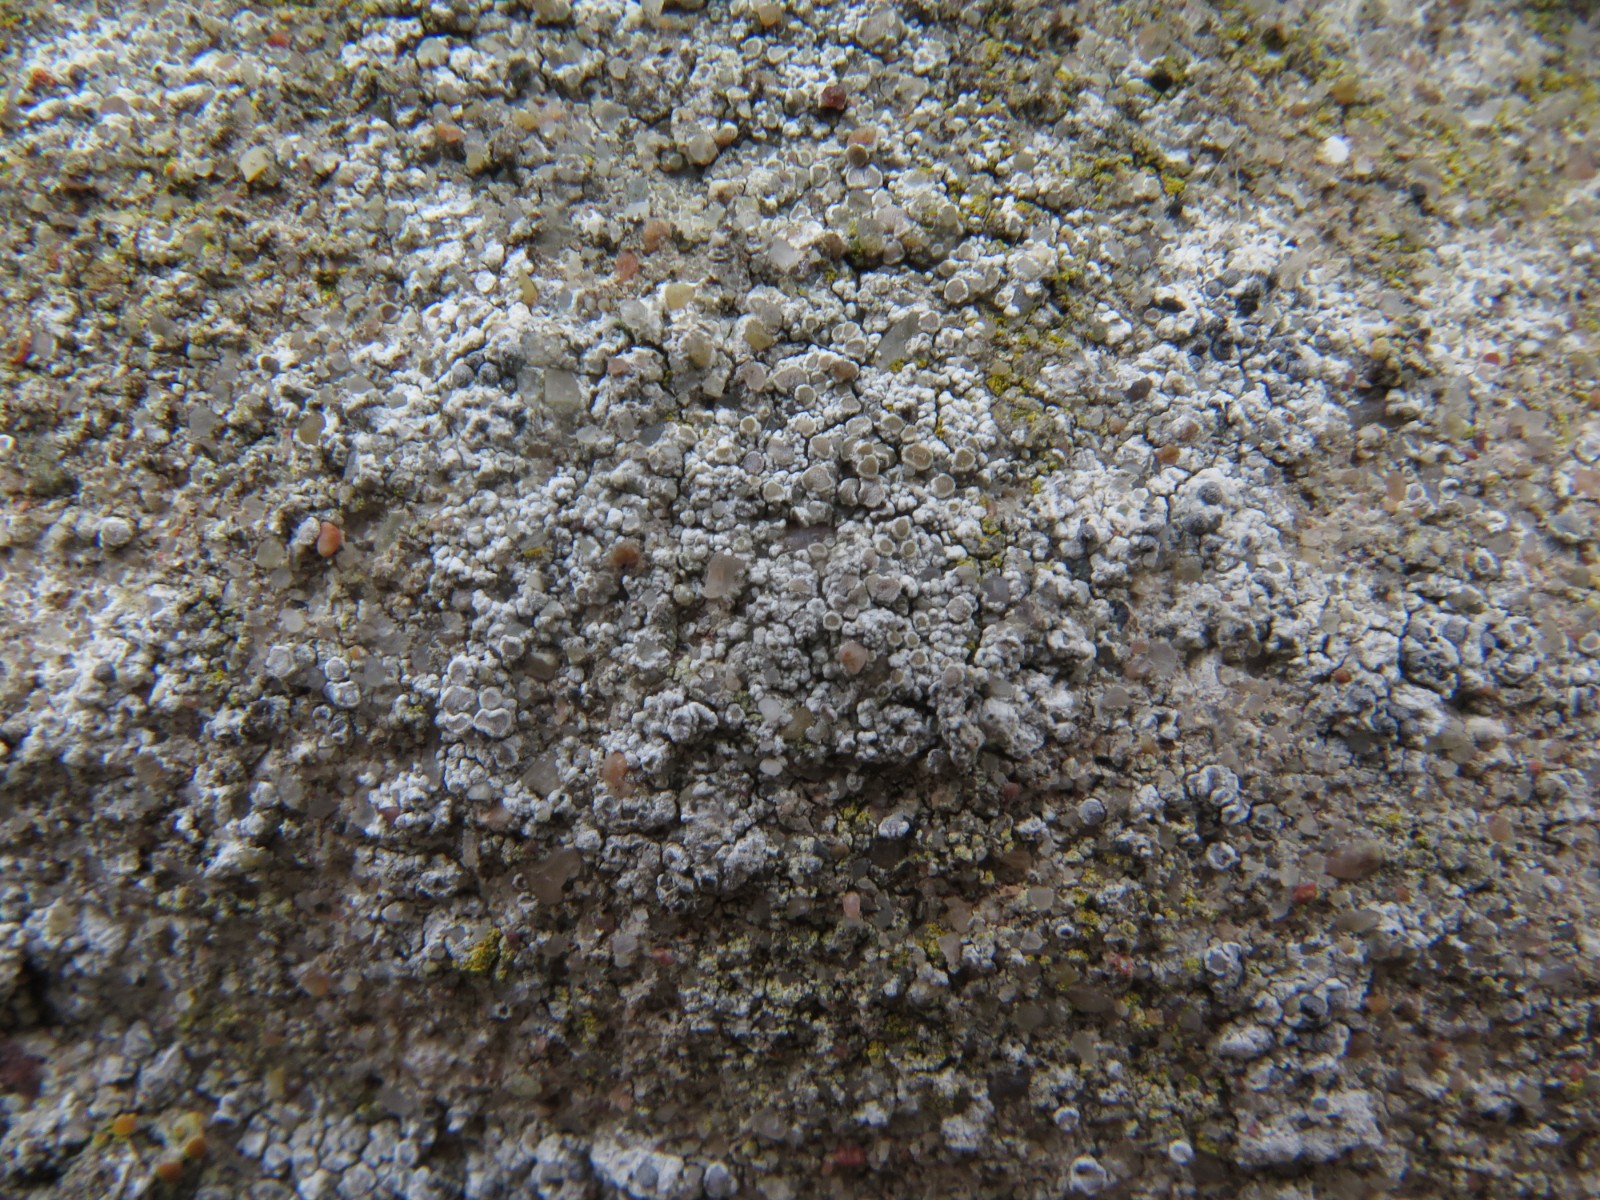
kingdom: Fungi
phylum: Ascomycota
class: Lecanoromycetes
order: Lecanorales
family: Lecanoraceae
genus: Polyozosia
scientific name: Polyozosia albescens
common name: cement-kantskivelav
